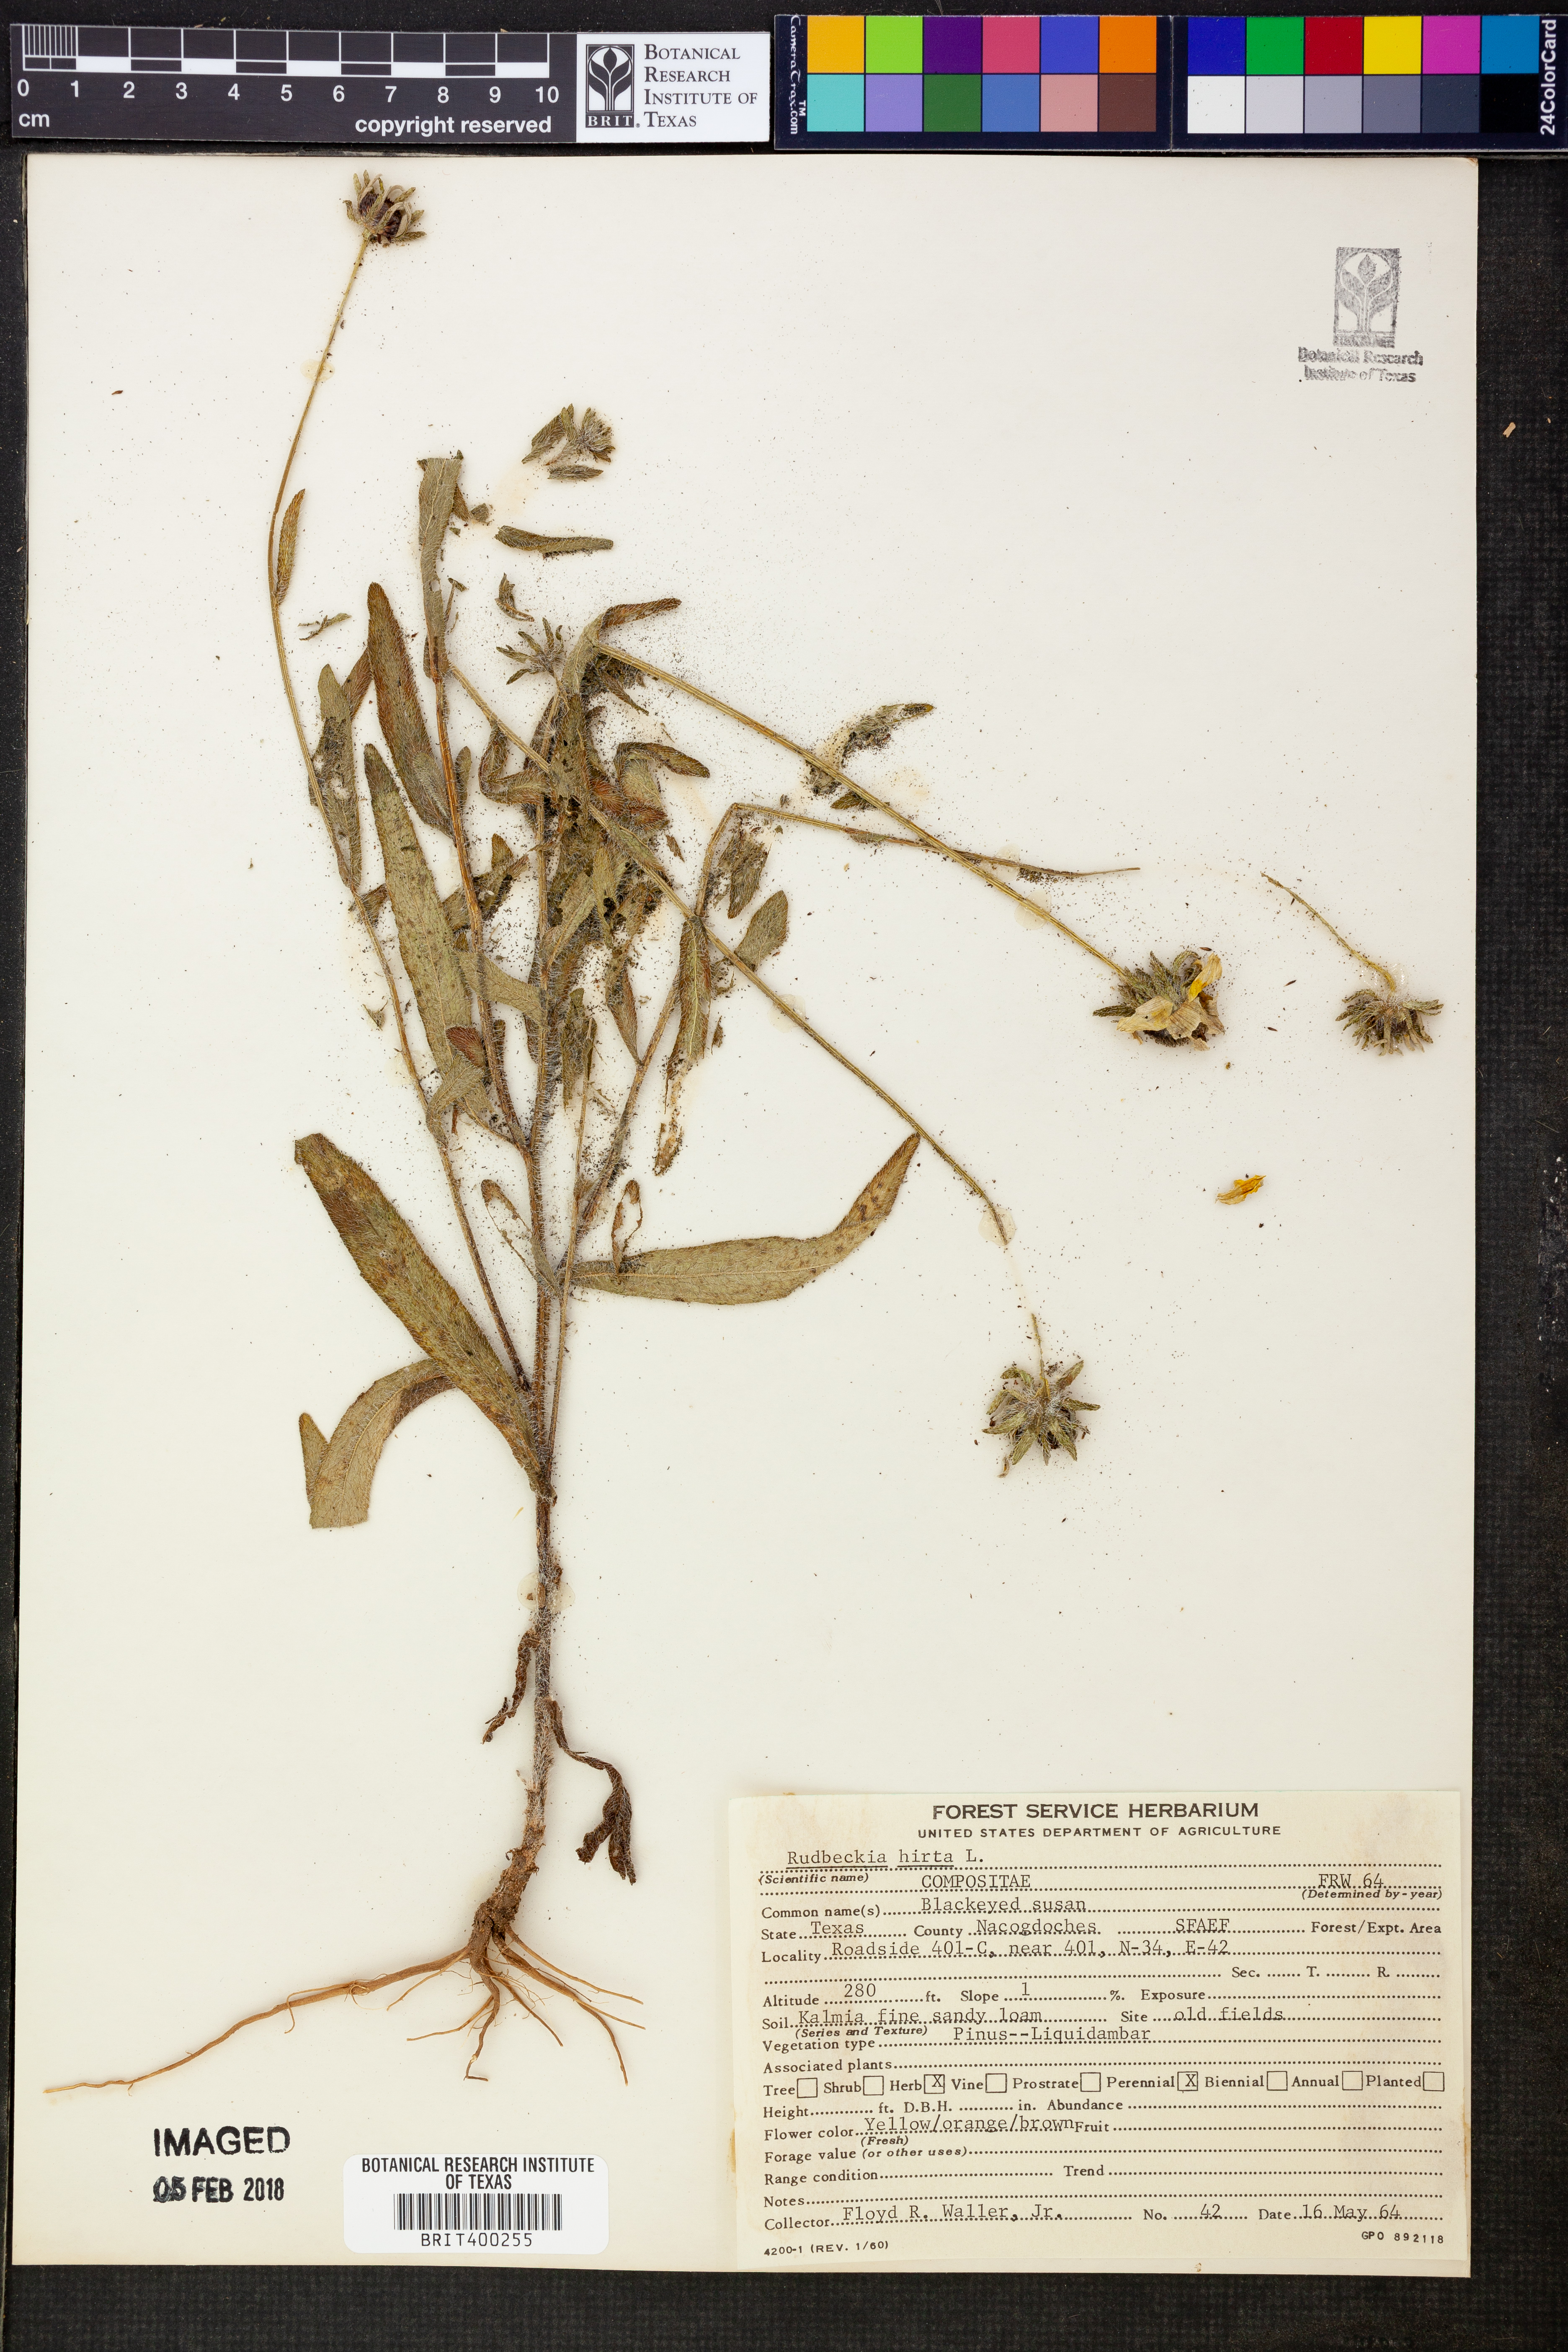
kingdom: Plantae
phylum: Tracheophyta
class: Magnoliopsida
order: Asterales
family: Asteraceae
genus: Rudbeckia
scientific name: Rudbeckia hirta
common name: Black-eyed-susan
